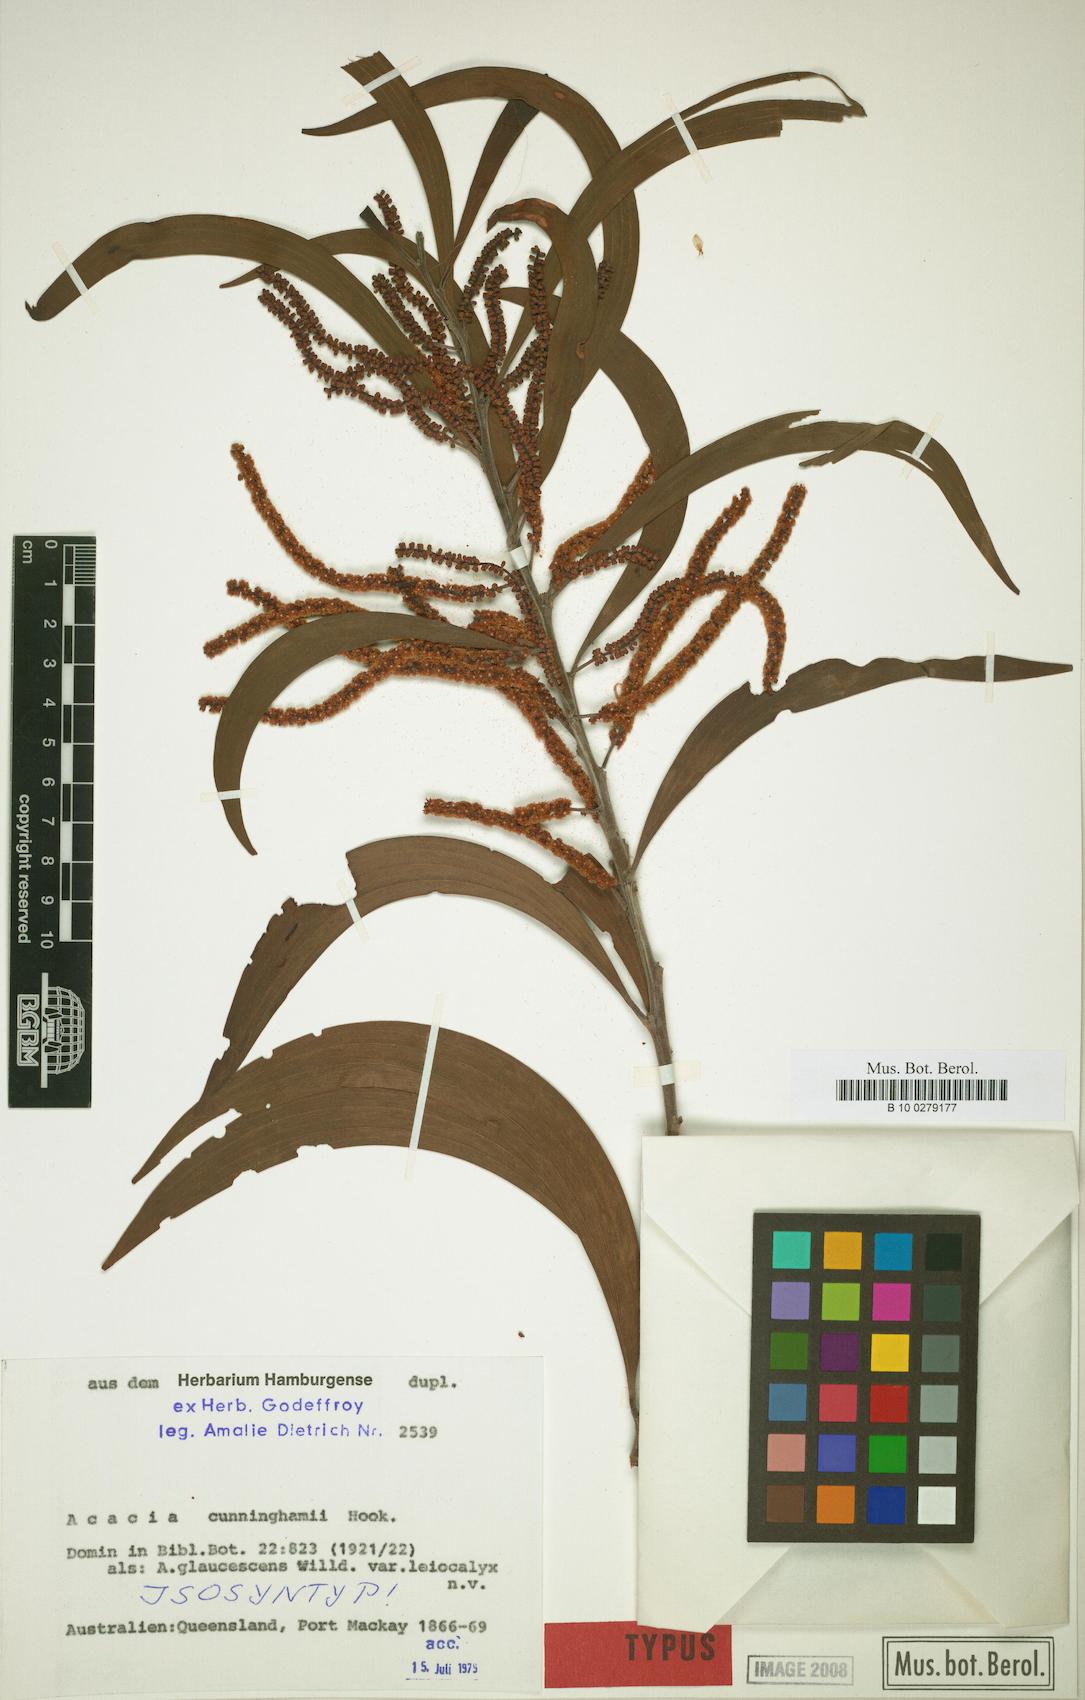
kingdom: Plantae
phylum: Tracheophyta
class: Magnoliopsida
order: Fabales
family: Fabaceae
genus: Acacia
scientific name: Acacia concurrens
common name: Black wattle
